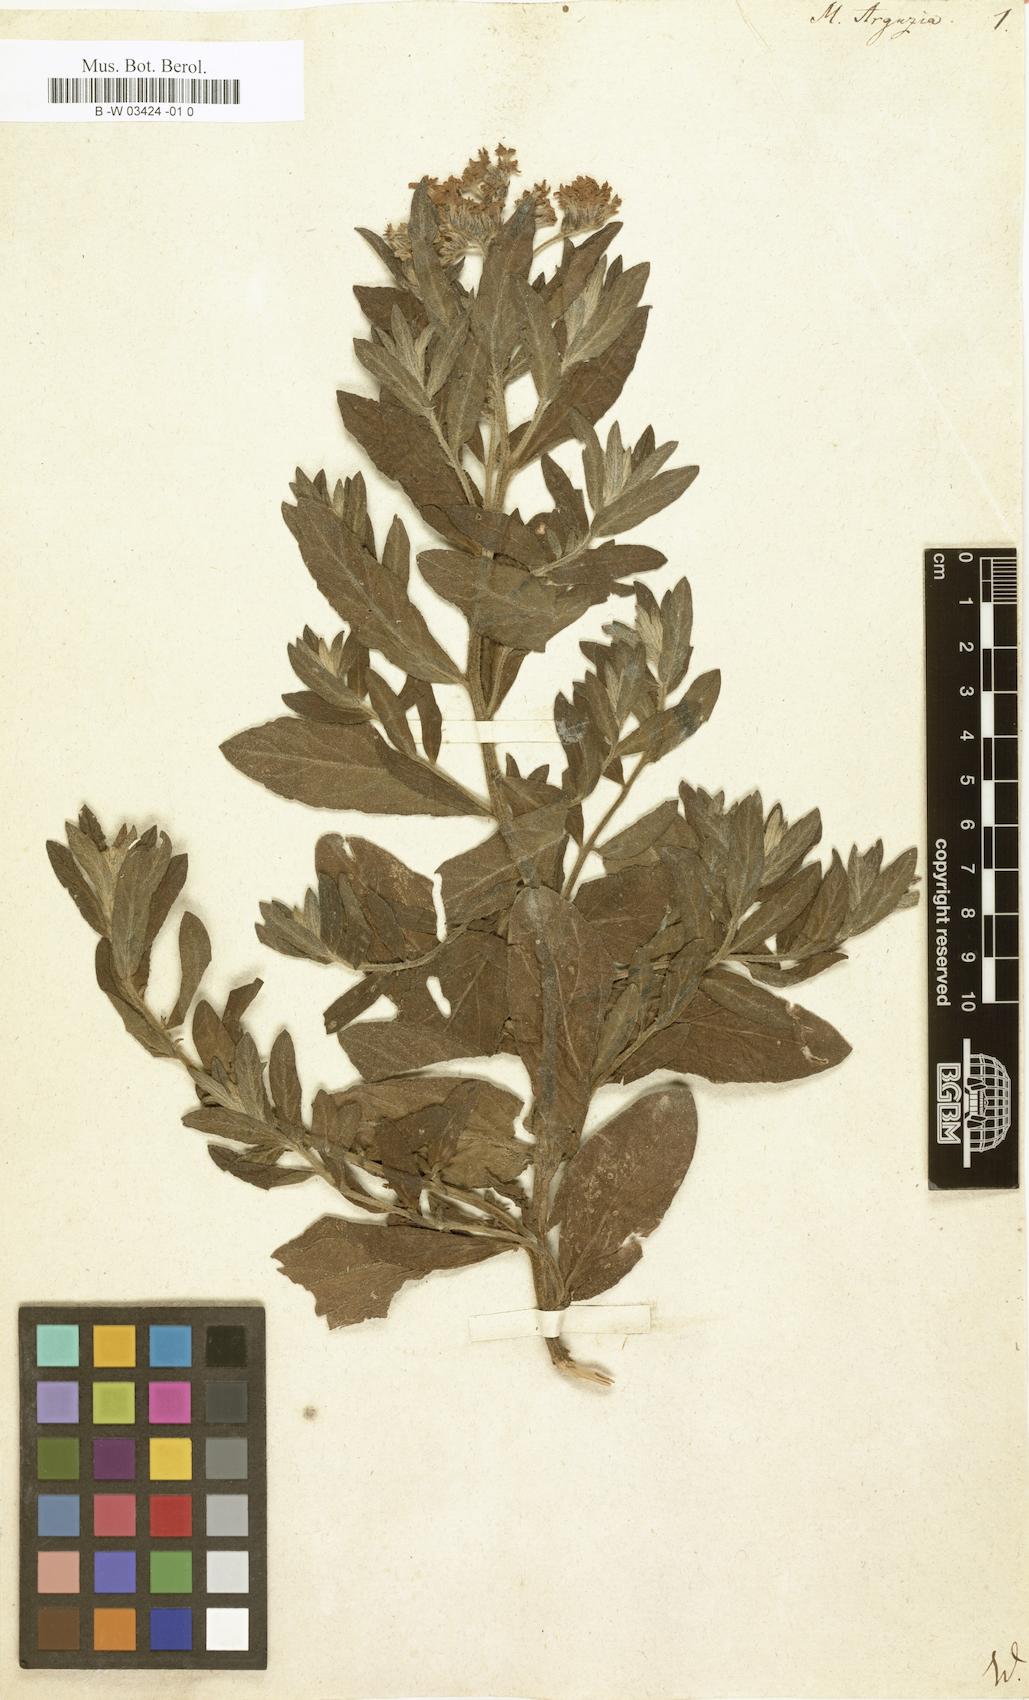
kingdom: Plantae
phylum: Tracheophyta
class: Magnoliopsida
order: Boraginales
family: Heliotropiaceae
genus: Tournefortia
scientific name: Tournefortia sibirica
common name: Siberian sea rosemary
